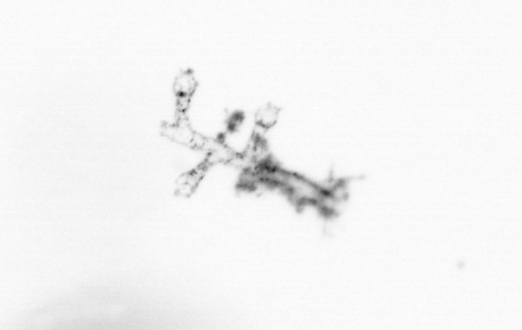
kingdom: Animalia
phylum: Cnidaria
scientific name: Cnidaria
